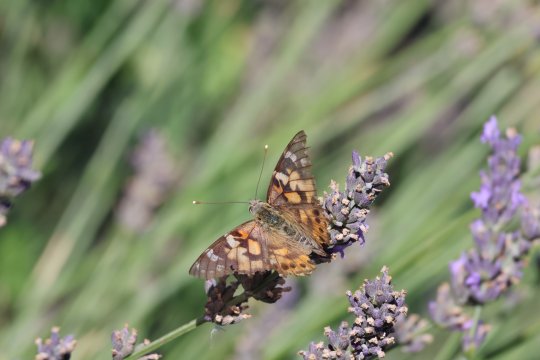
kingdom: Animalia
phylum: Arthropoda
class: Insecta
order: Lepidoptera
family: Nymphalidae
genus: Vanessa
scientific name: Vanessa cardui
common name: Painted Lady
